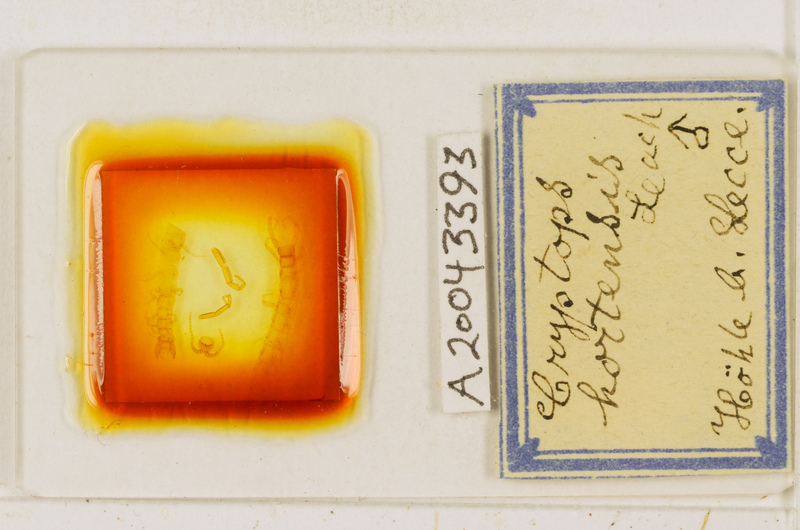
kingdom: Animalia
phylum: Arthropoda
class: Chilopoda
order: Scolopendromorpha
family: Cryptopidae
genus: Cryptops
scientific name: Cryptops hortensis
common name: Centipede
